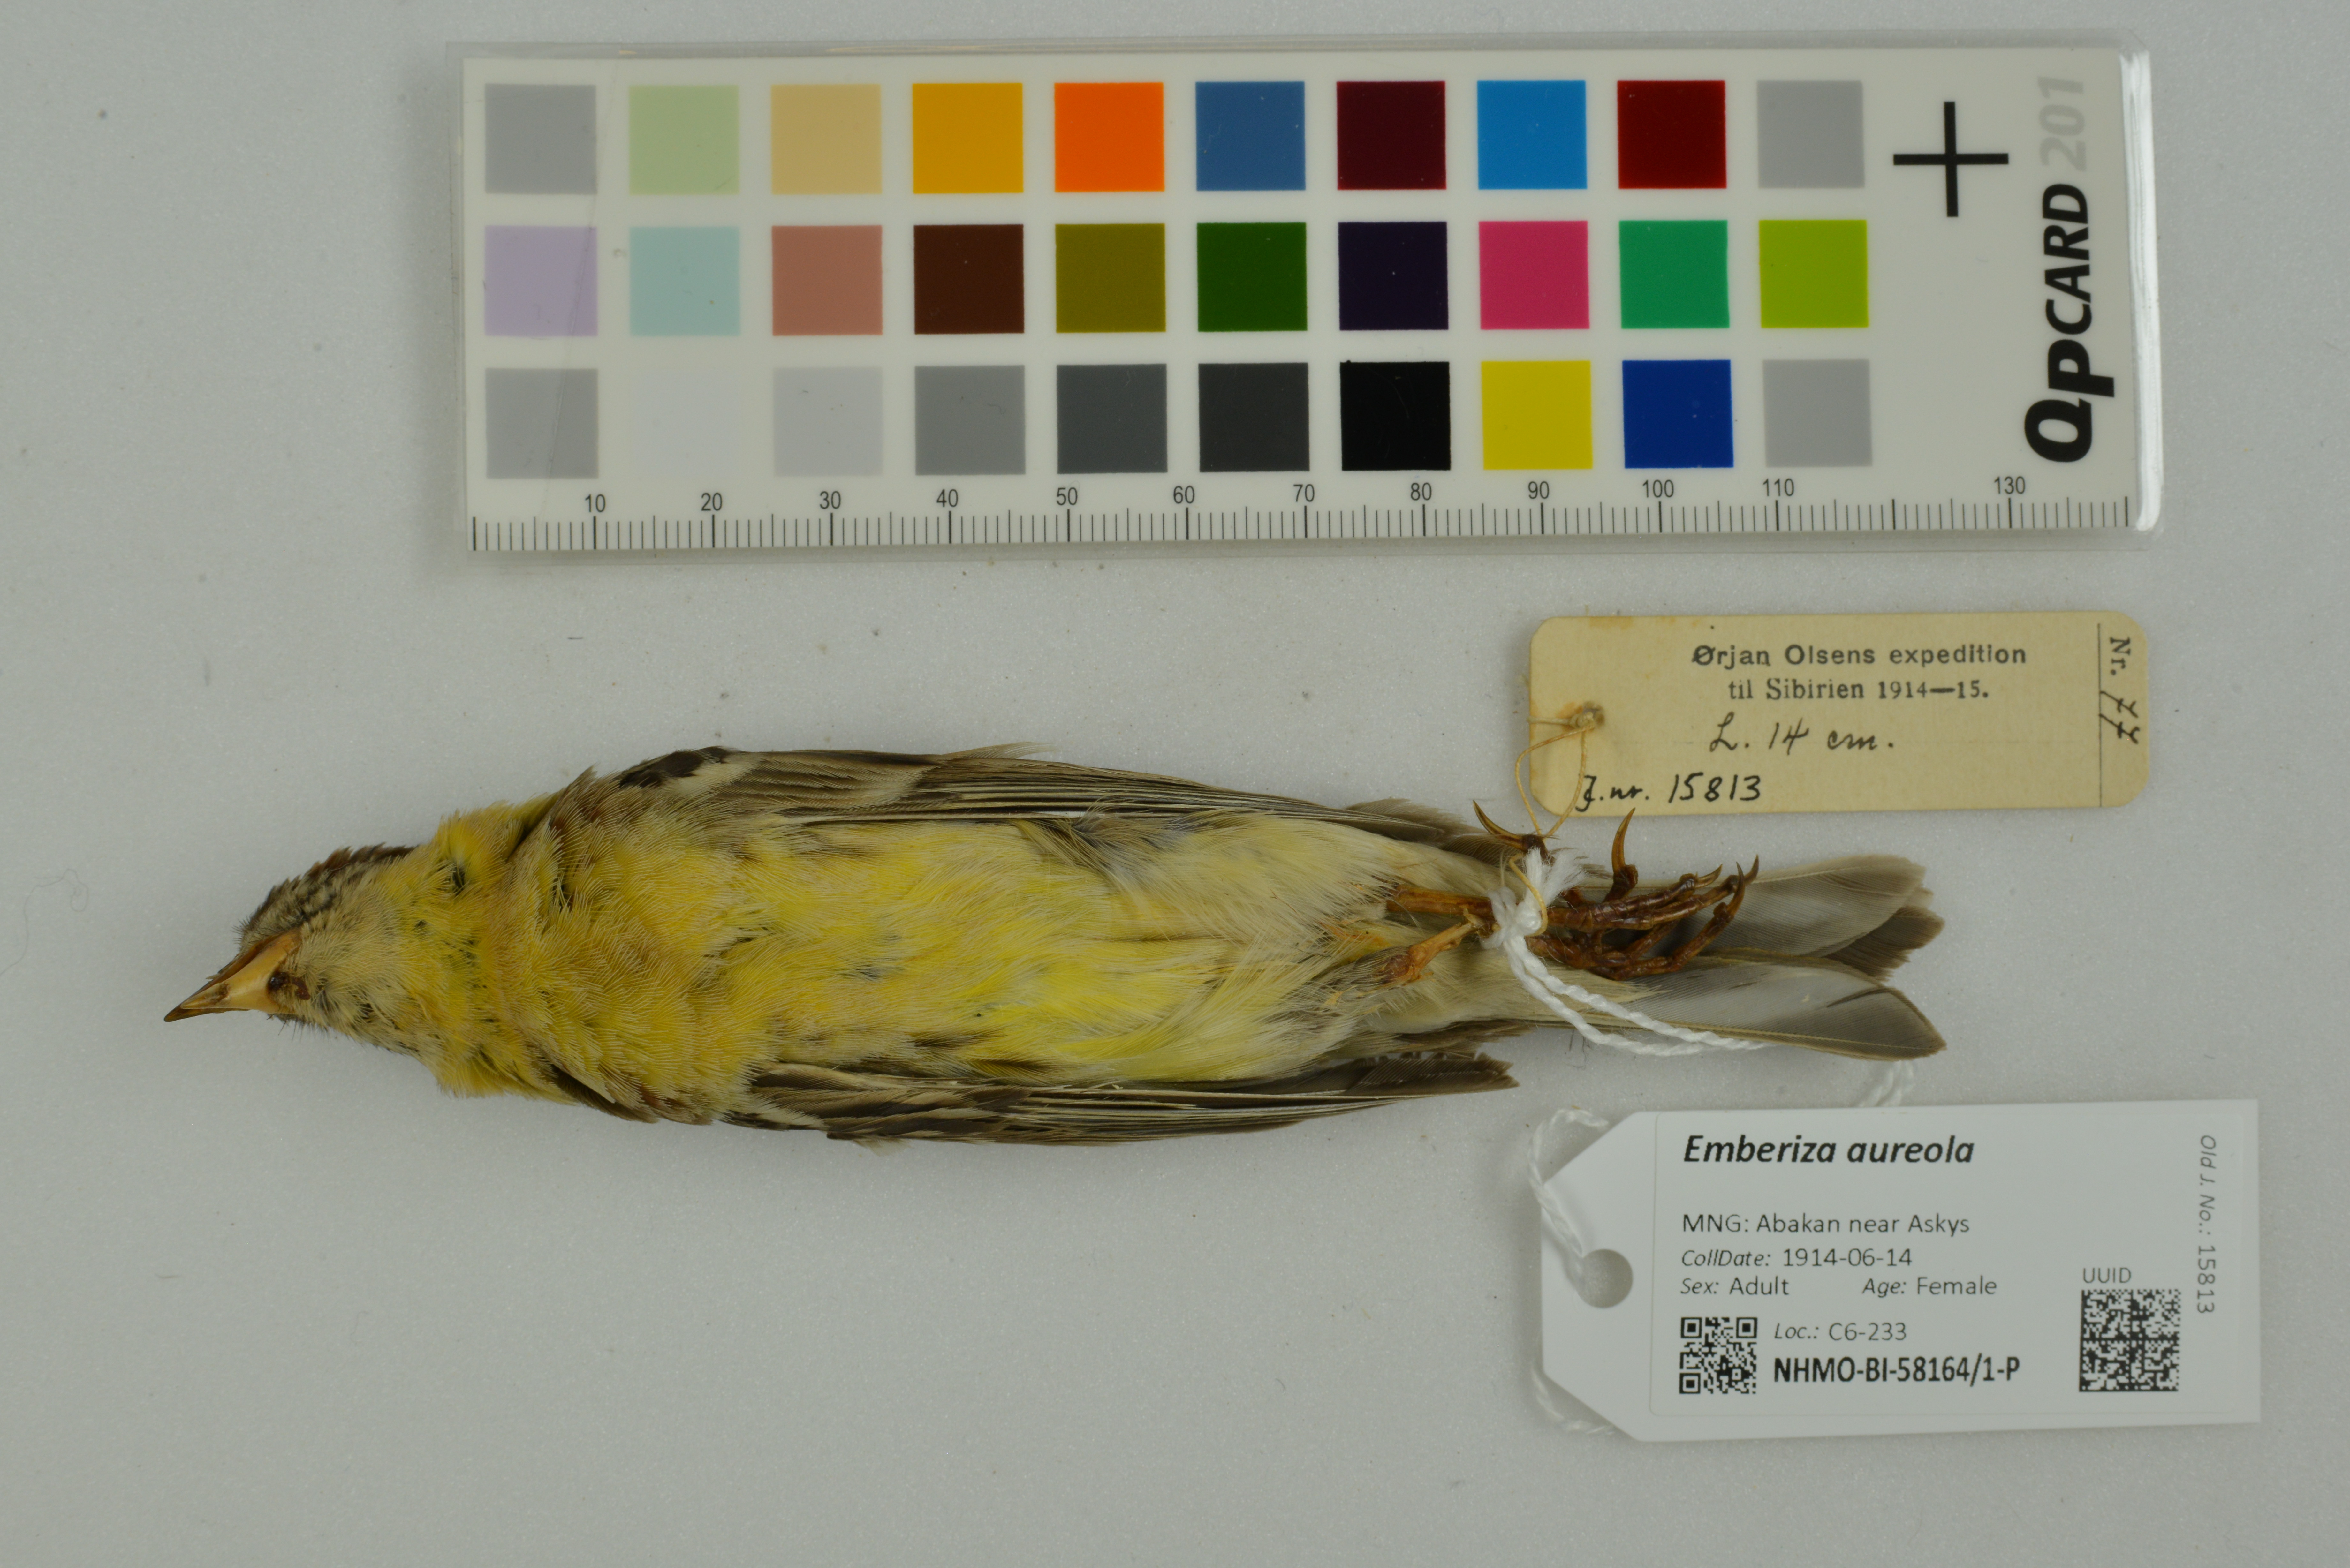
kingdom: Animalia
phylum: Chordata
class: Aves
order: Passeriformes
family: Emberizidae
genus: Emberiza
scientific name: Emberiza aureola
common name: Yellow-breasted bunting
